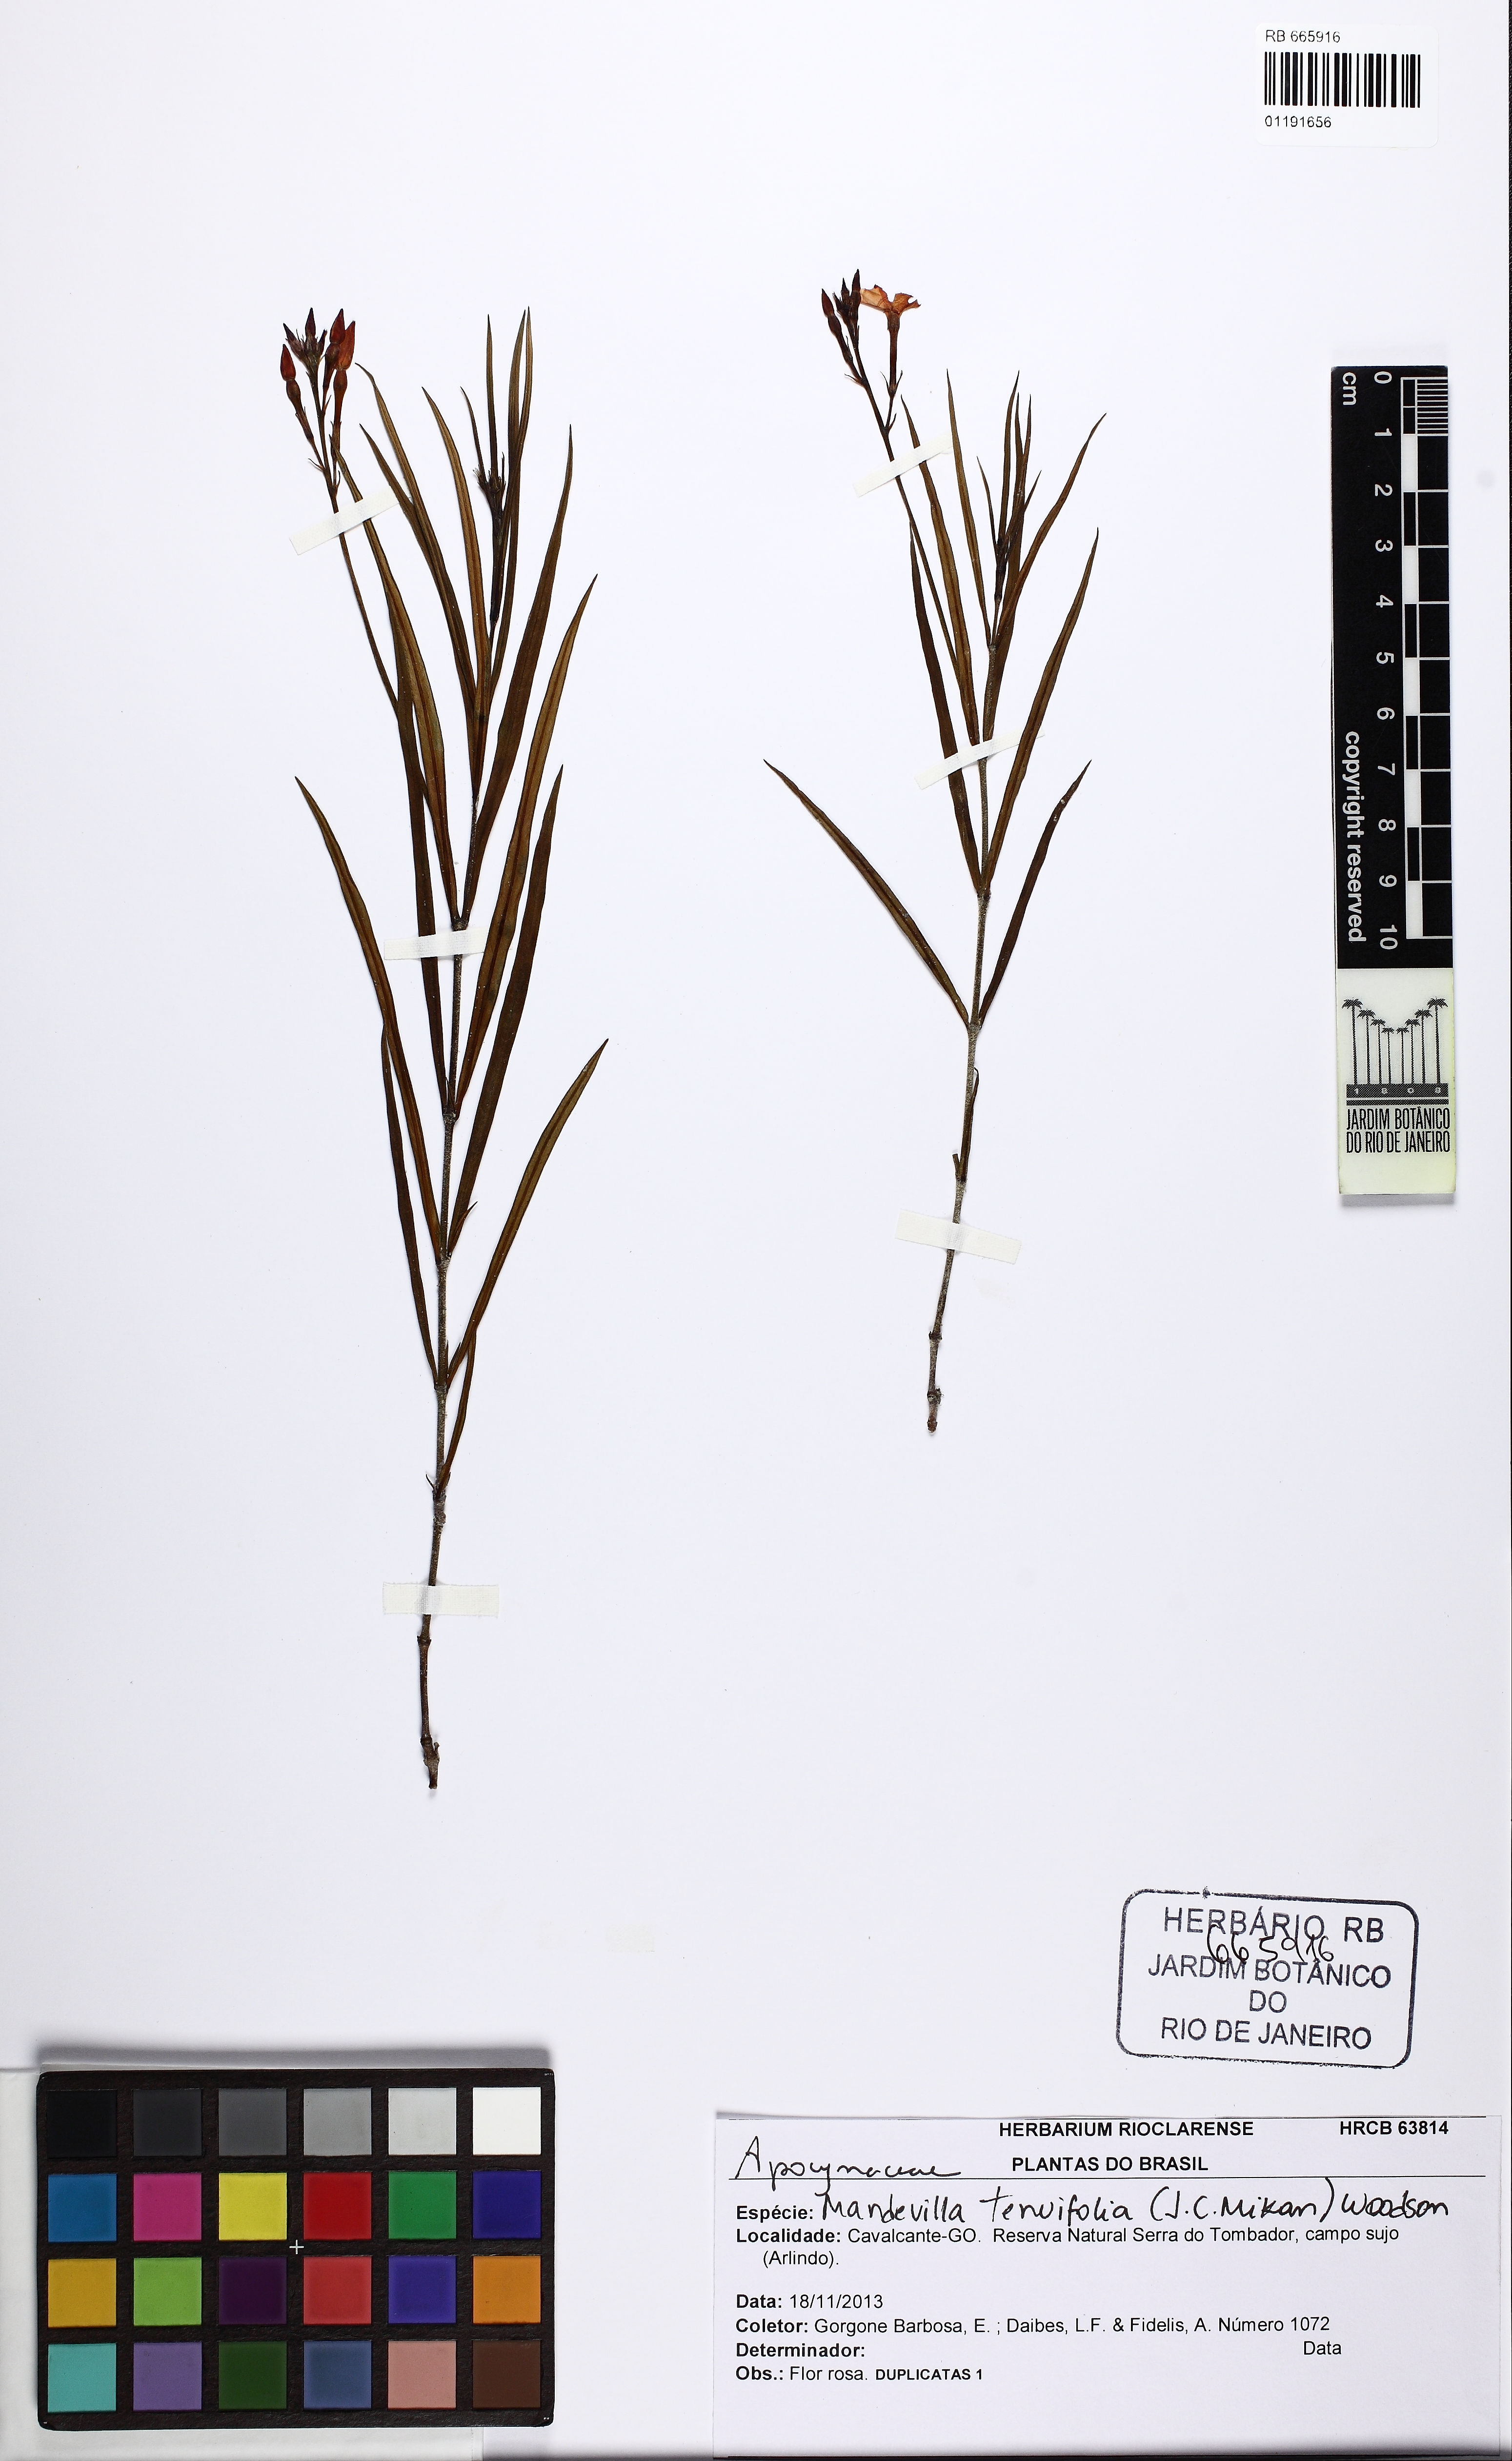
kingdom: Plantae
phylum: Tracheophyta
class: Magnoliopsida
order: Gentianales
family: Apocynaceae
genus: Mandevilla
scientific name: Mandevilla tenuifolia
